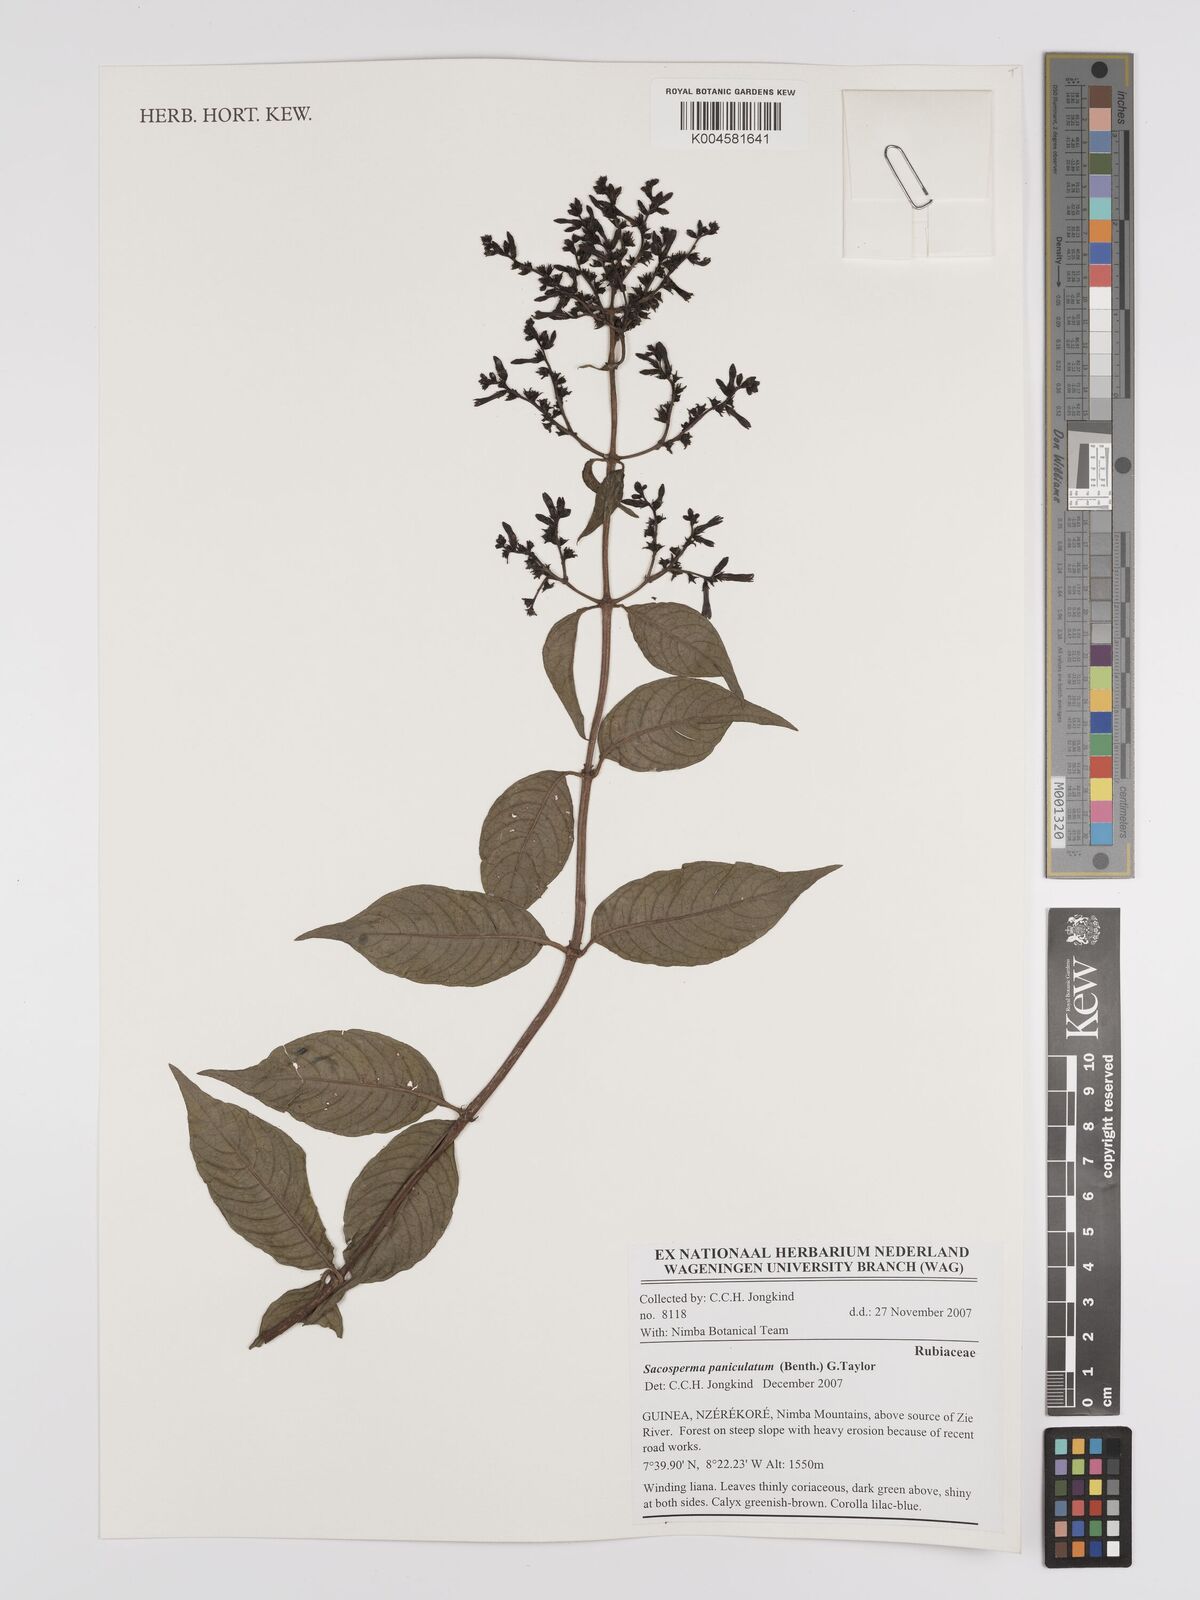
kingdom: Plantae
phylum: Tracheophyta
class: Magnoliopsida
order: Gentianales
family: Rubiaceae
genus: Sacosperma
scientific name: Sacosperma paniculatum
